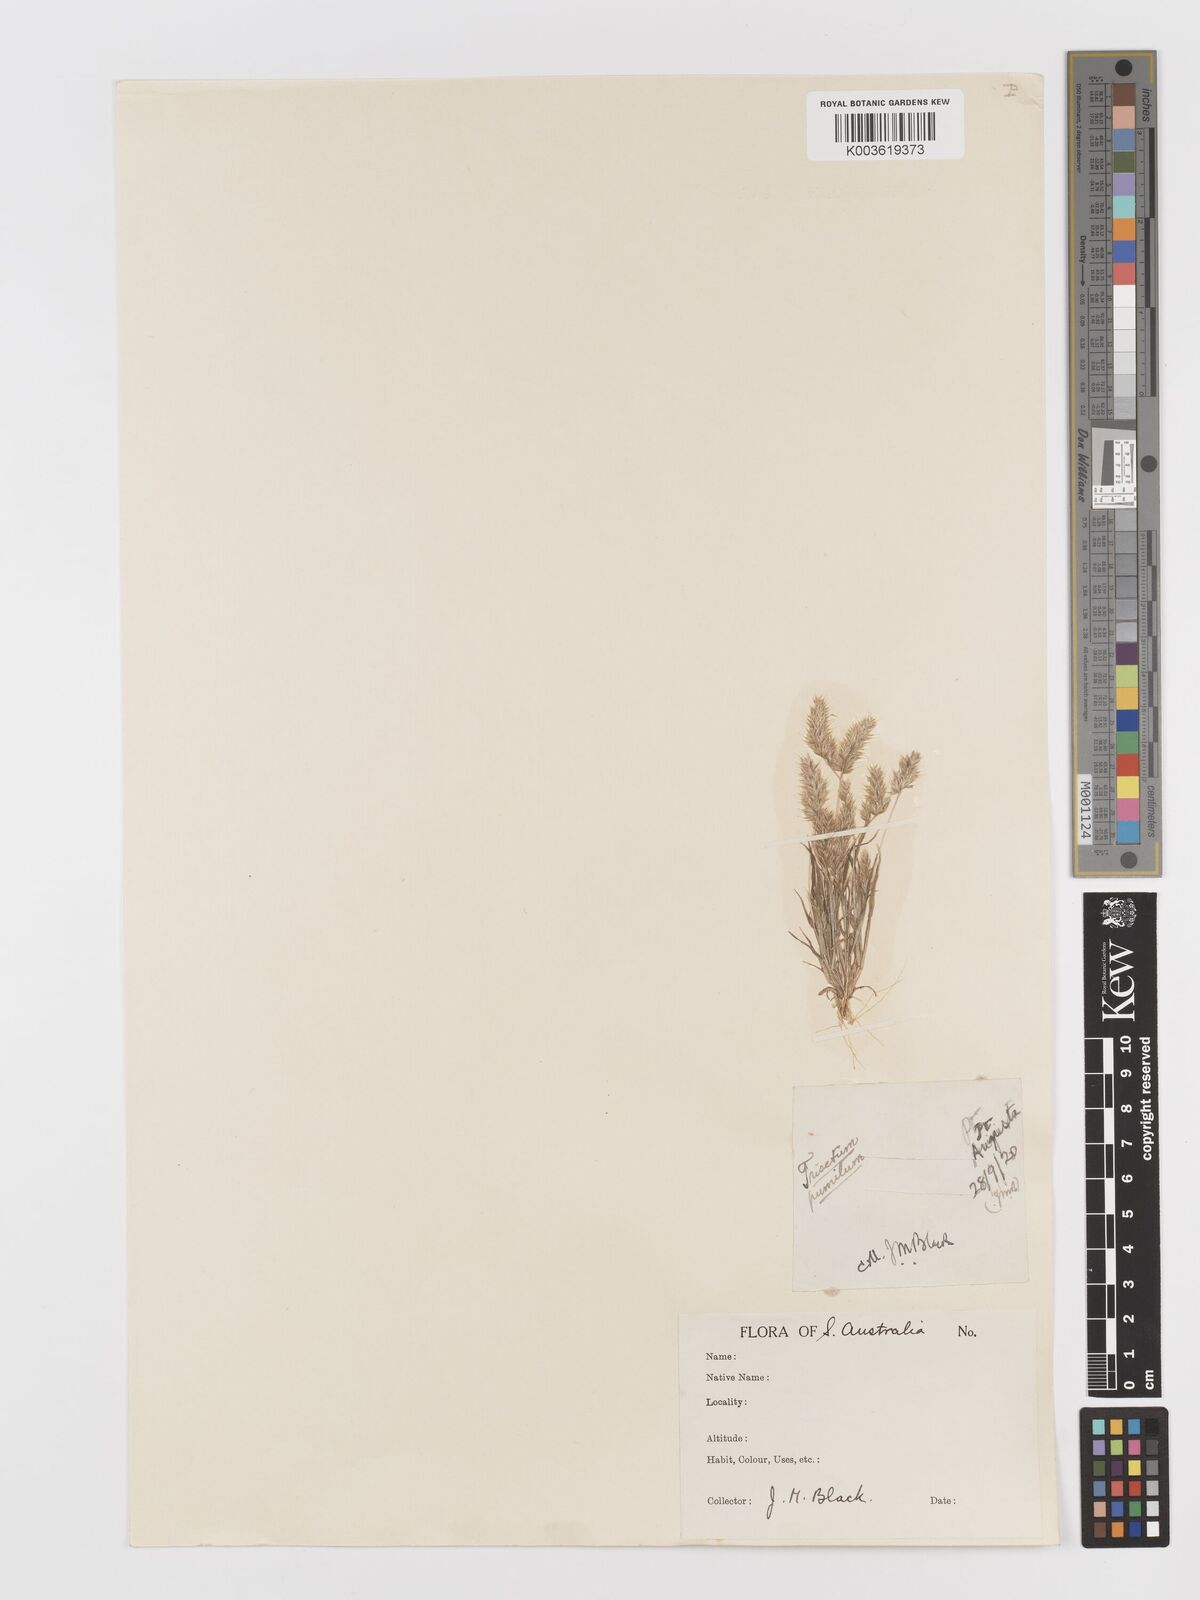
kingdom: Plantae
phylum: Tracheophyta
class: Liliopsida
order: Poales
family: Poaceae
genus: Rostraria
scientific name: Rostraria pumila
